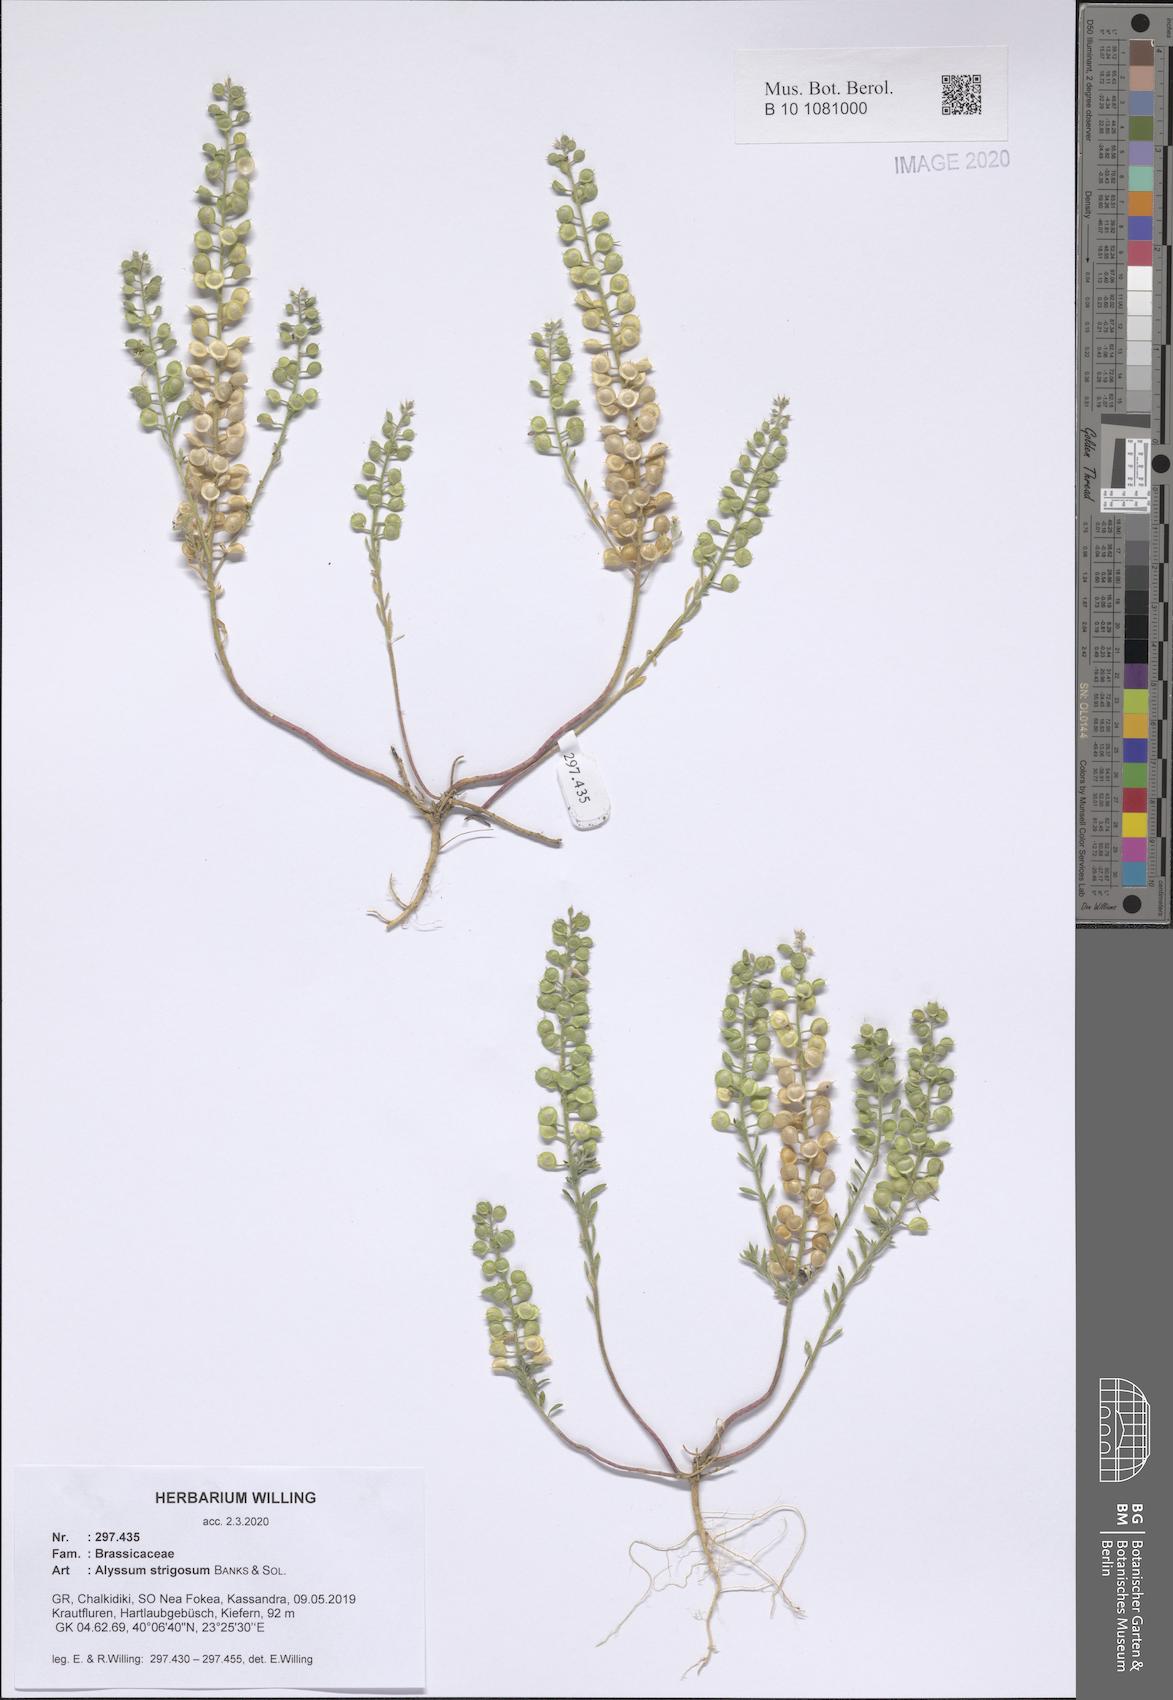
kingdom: Plantae
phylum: Tracheophyta
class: Magnoliopsida
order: Brassicales
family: Brassicaceae
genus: Alyssum
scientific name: Alyssum strigosum
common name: Alyssum
